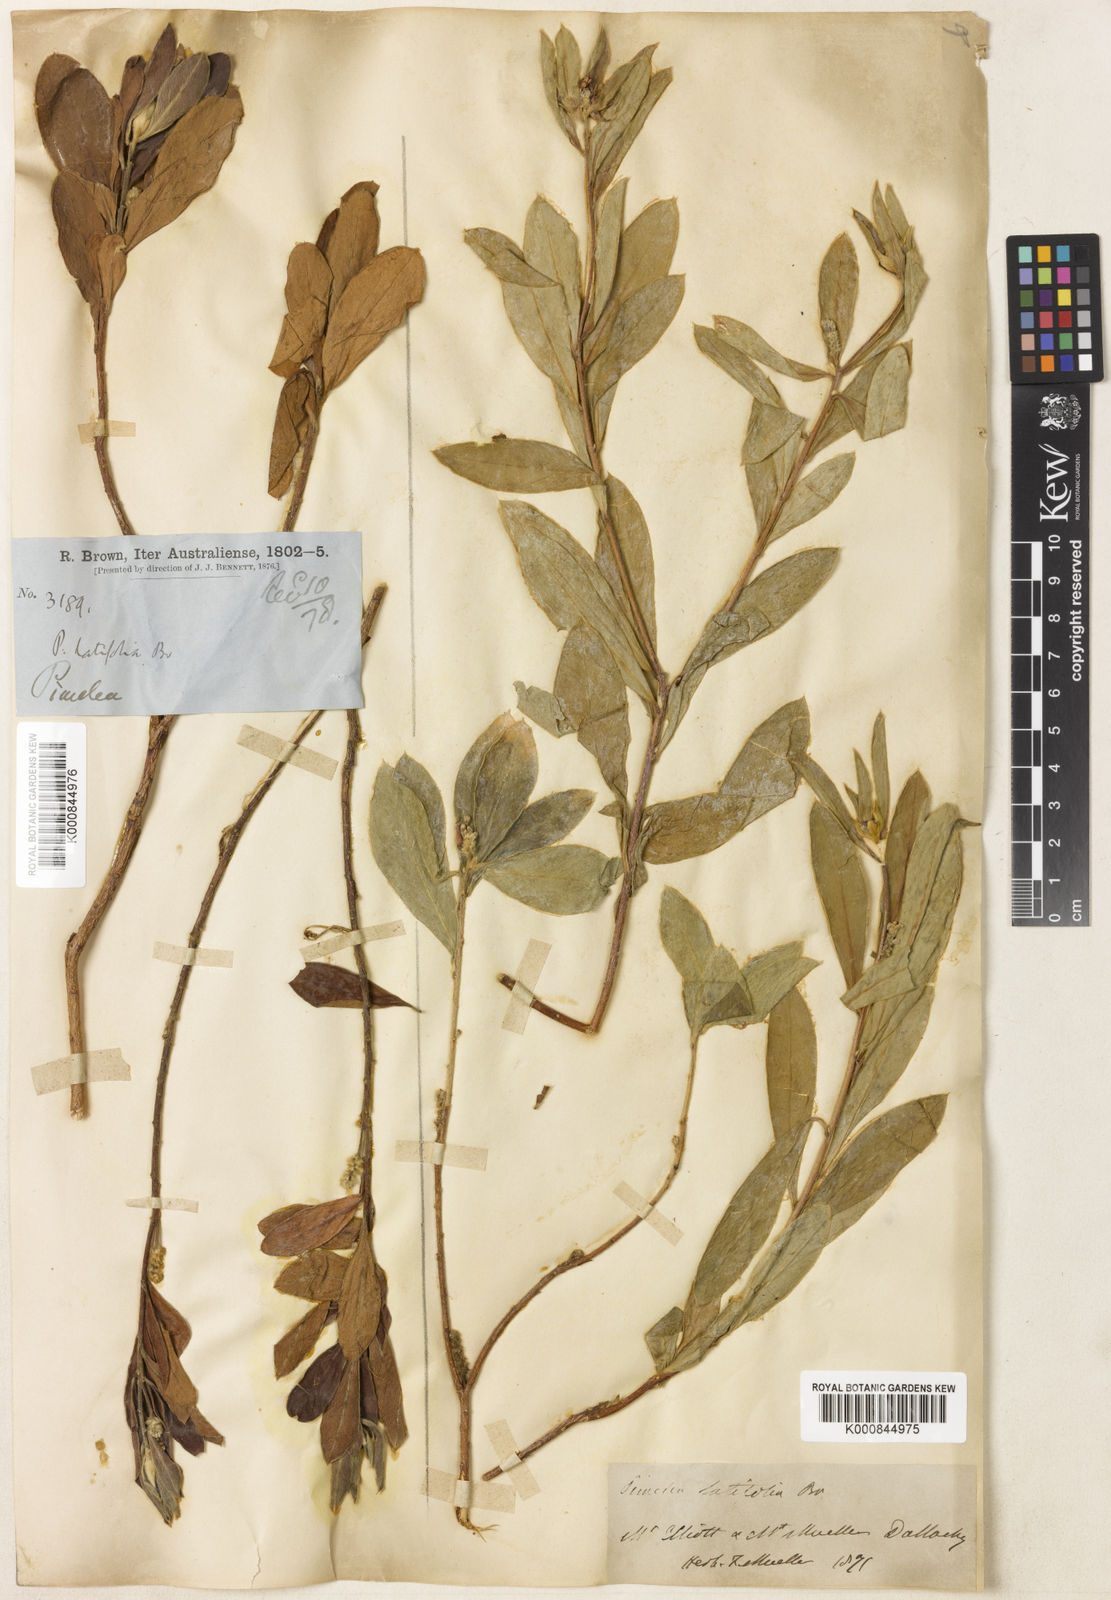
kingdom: Plantae
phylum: Tracheophyta
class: Magnoliopsida
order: Malvales
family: Thymelaeaceae
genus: Pimelea
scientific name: Pimelea latifolia
